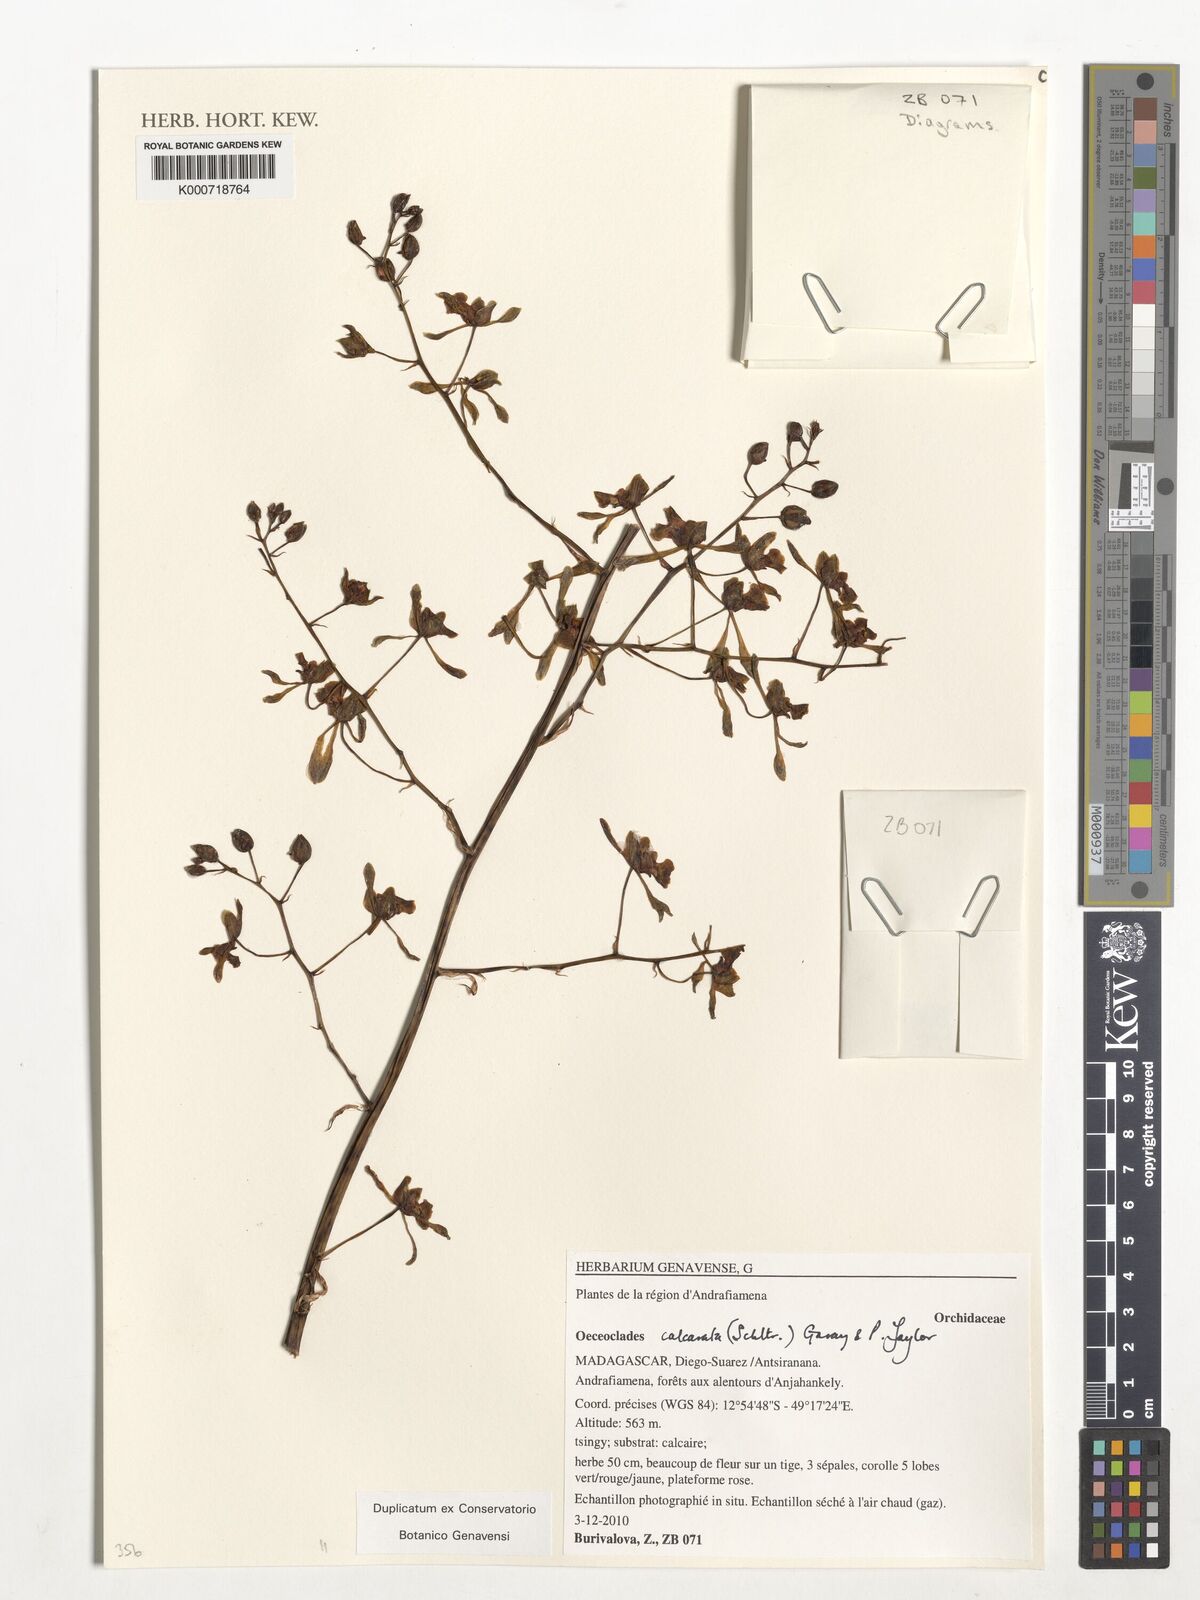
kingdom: Plantae
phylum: Tracheophyta
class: Liliopsida
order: Asparagales
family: Orchidaceae
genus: Eulophia
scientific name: Eulophia calcarata
